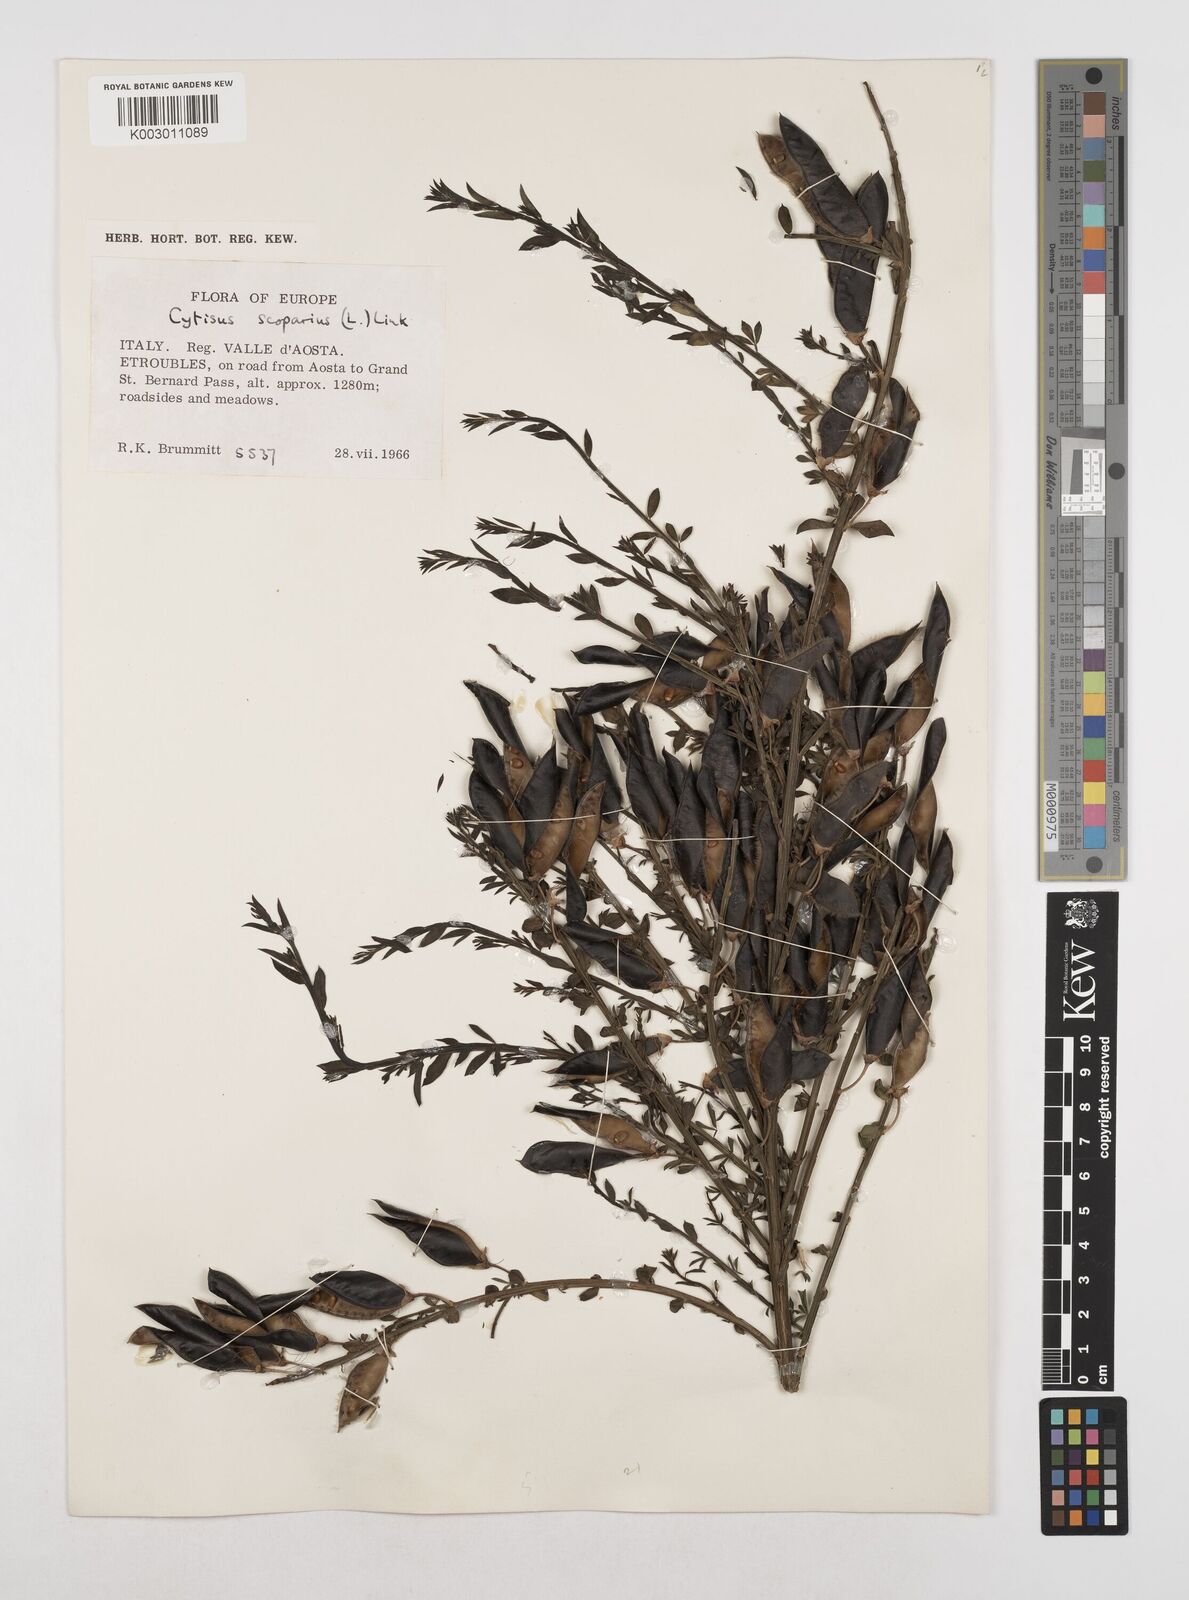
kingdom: Plantae
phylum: Tracheophyta
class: Magnoliopsida
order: Fabales
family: Fabaceae
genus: Cytisus
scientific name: Cytisus scoparius
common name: Scotch broom
